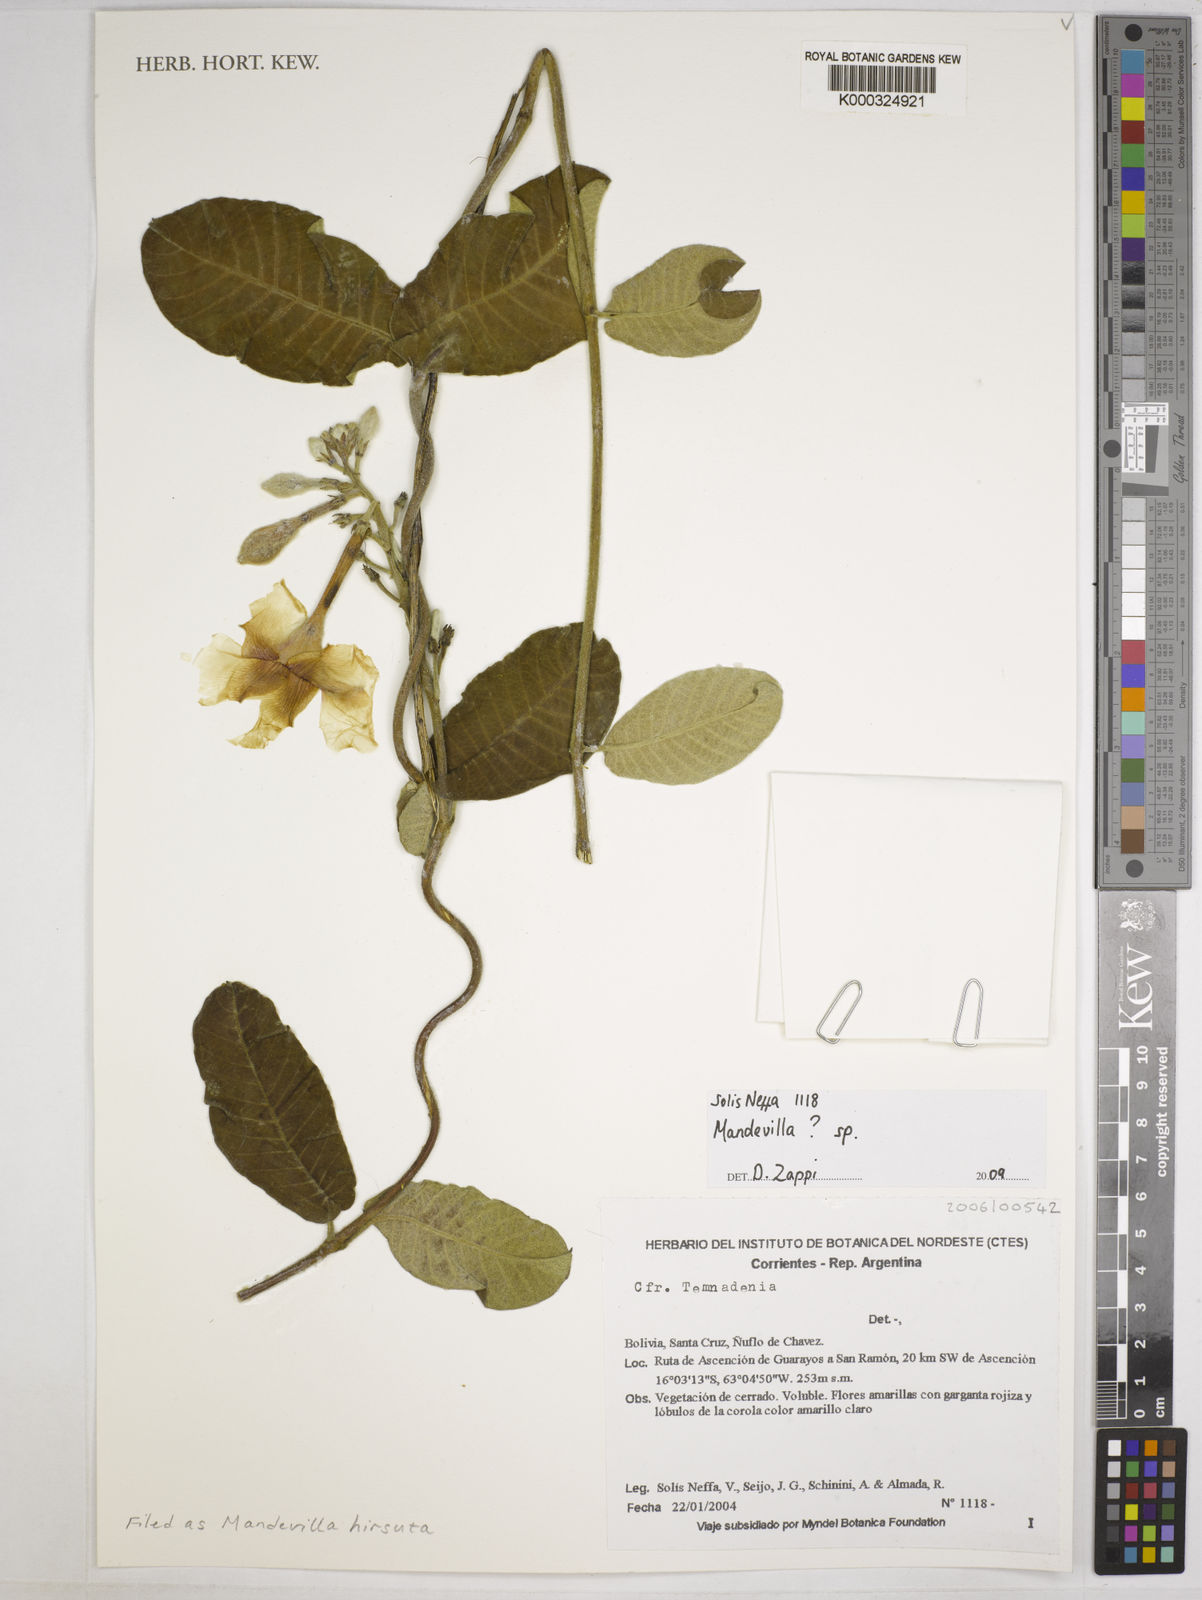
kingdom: Plantae
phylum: Tracheophyta
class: Magnoliopsida
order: Gentianales
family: Apocynaceae
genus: Mandevilla
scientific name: Mandevilla
